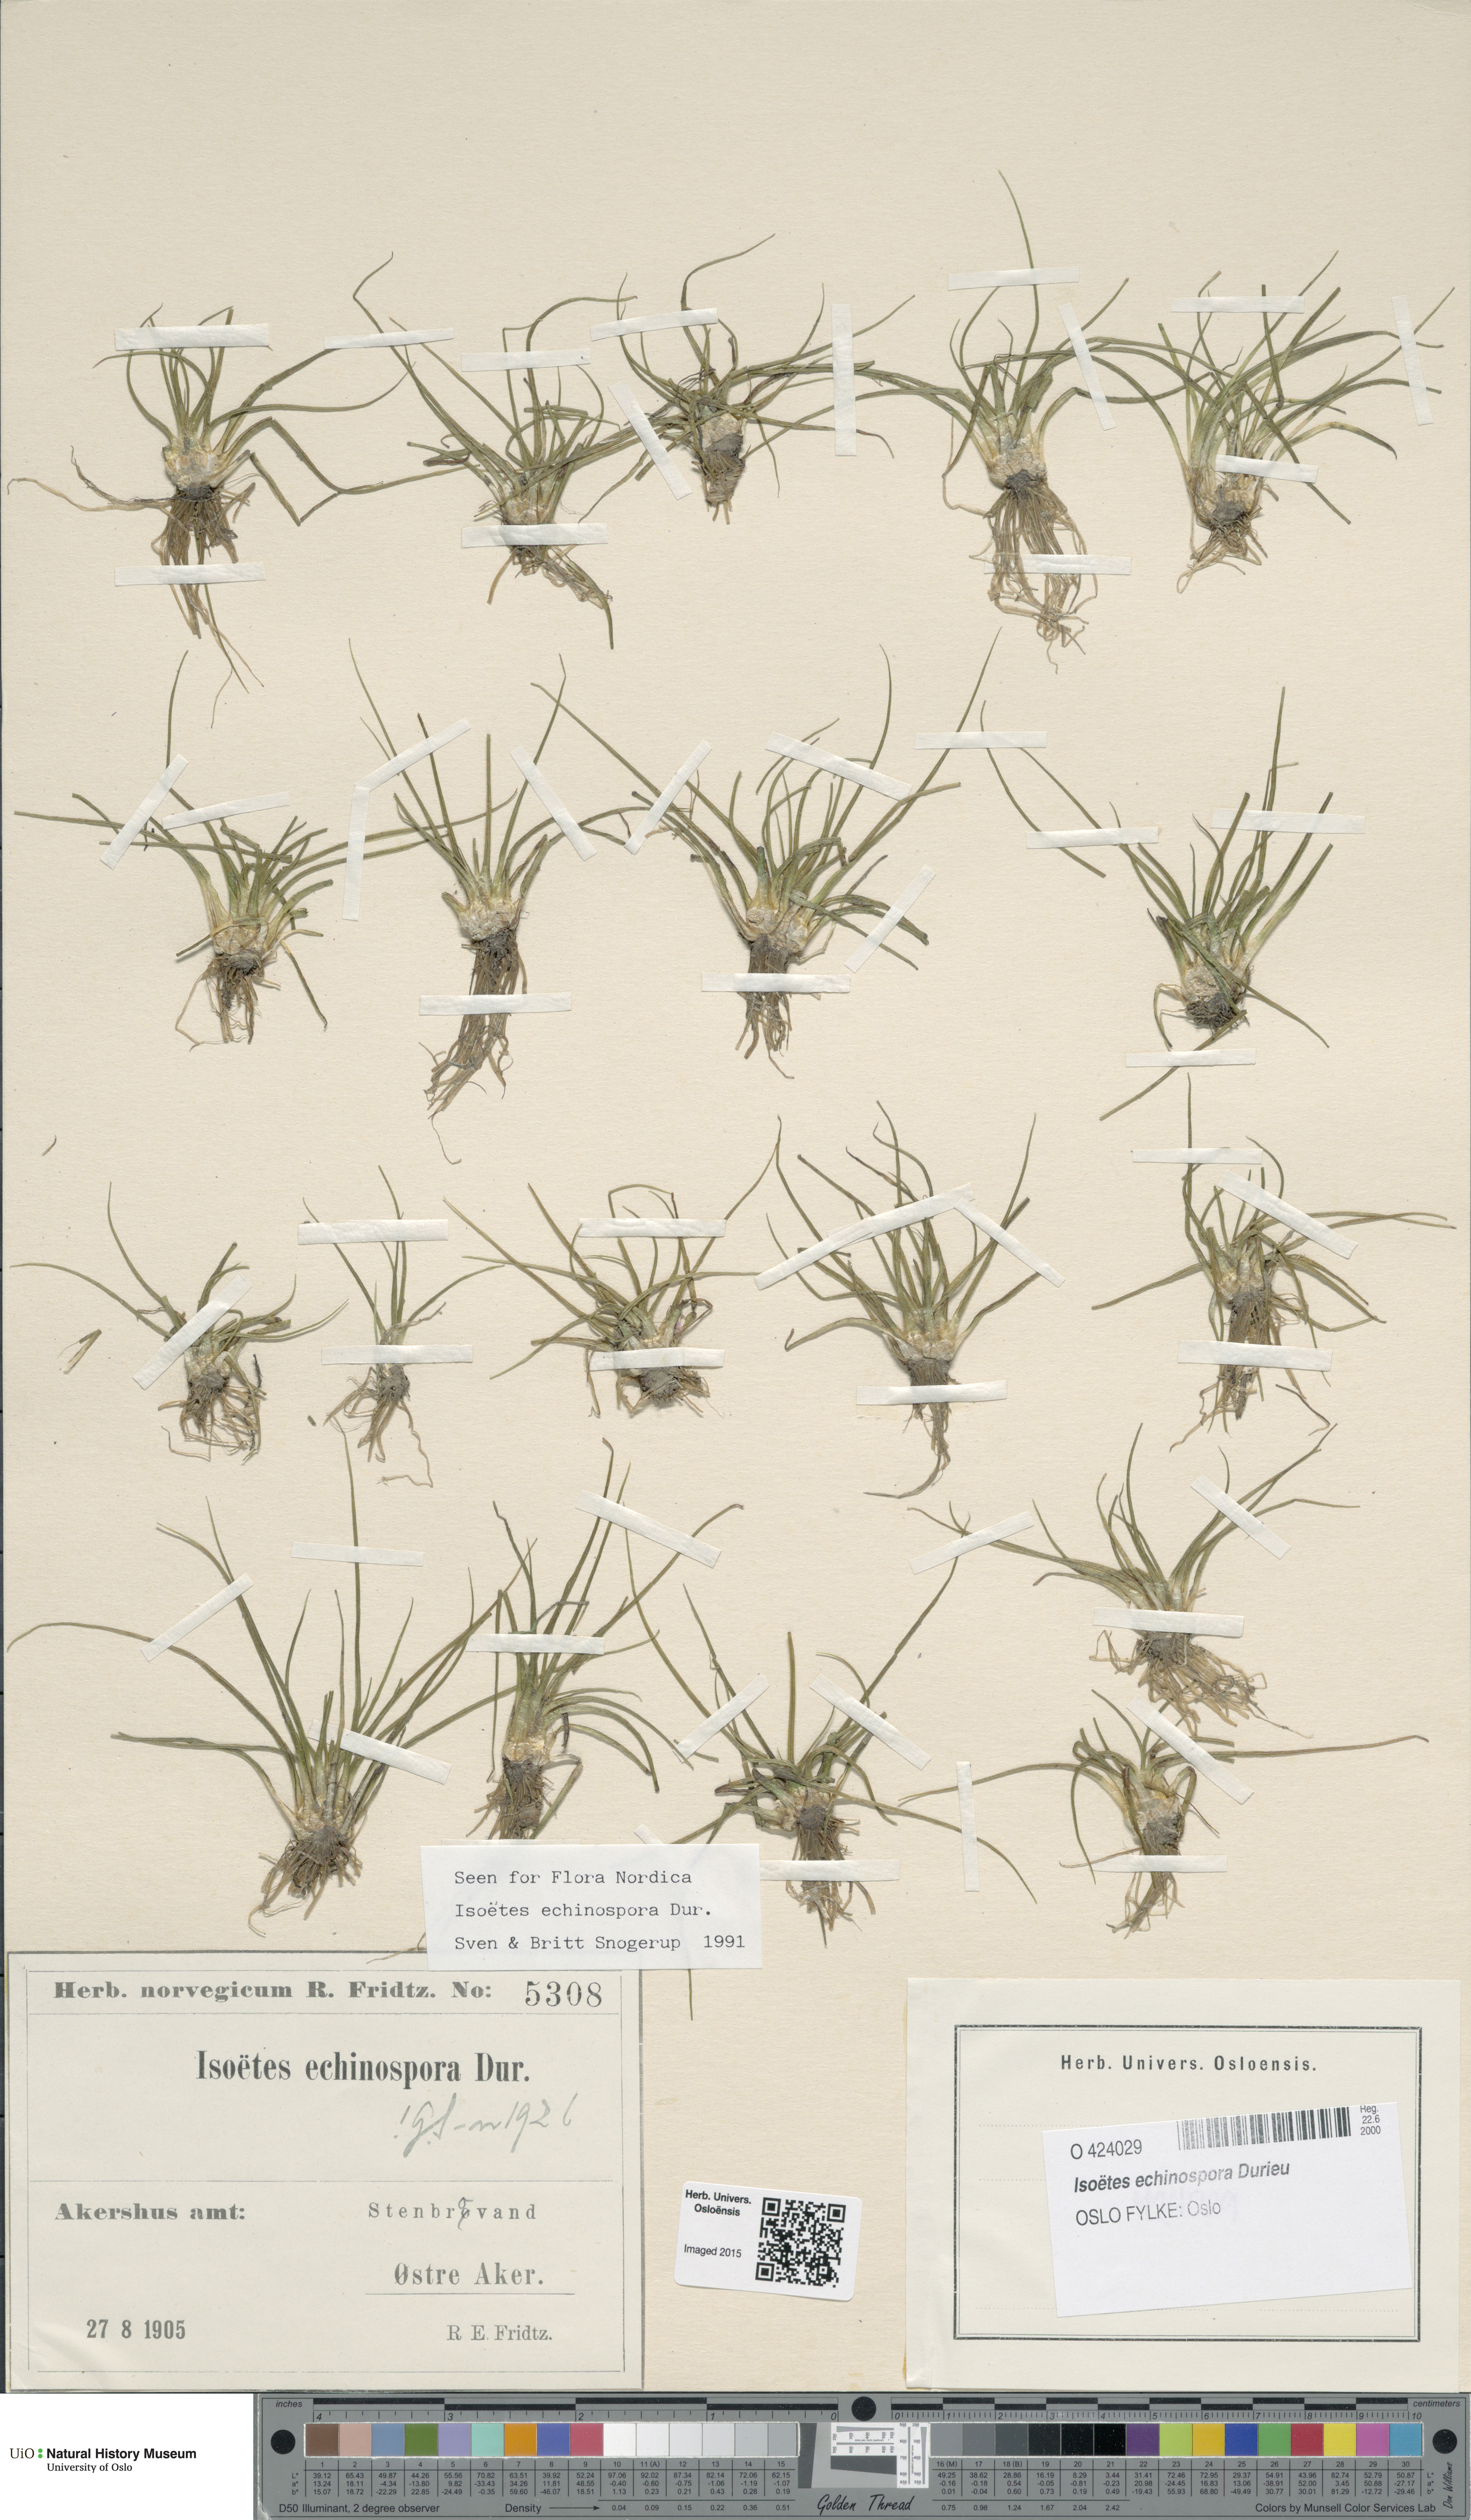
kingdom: Plantae
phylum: Tracheophyta
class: Lycopodiopsida
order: Isoetales
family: Isoetaceae
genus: Isoetes
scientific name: Isoetes echinospora
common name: Spring quillwort
